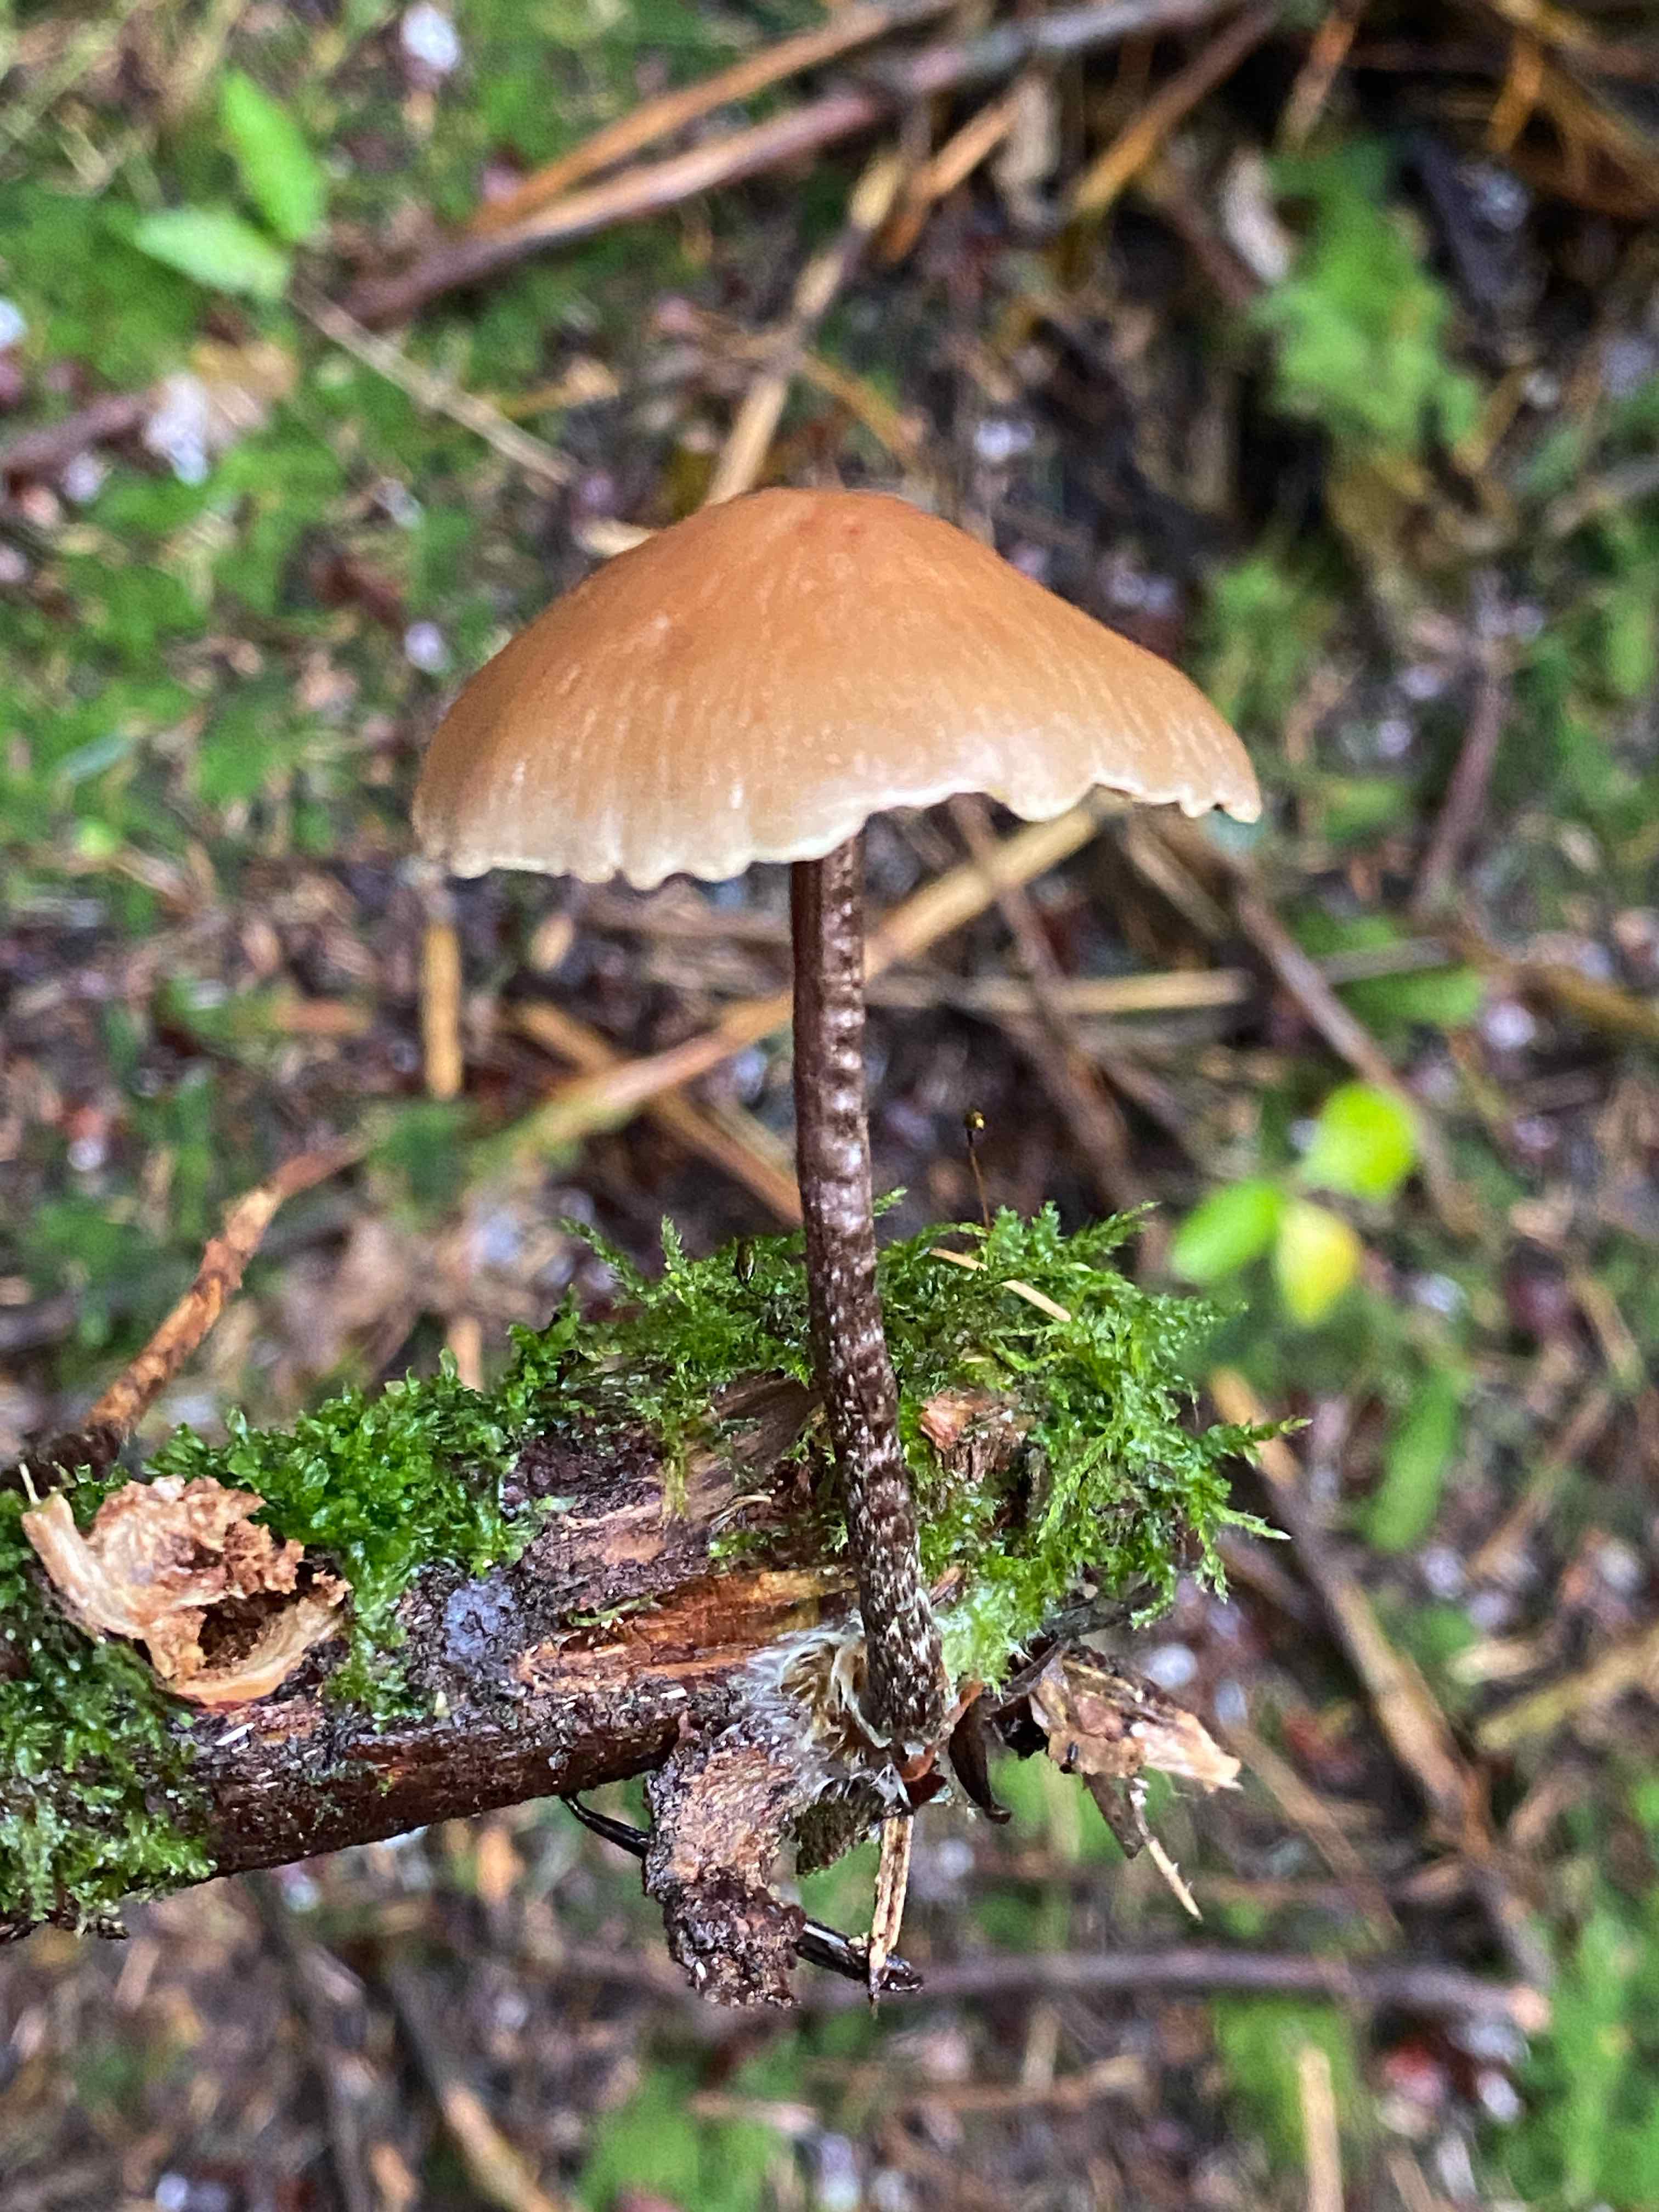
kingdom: Fungi
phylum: Basidiomycota
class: Agaricomycetes
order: Agaricales
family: Strophariaceae
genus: Hypholoma
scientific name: Hypholoma marginatum
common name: enlig svovlhat
